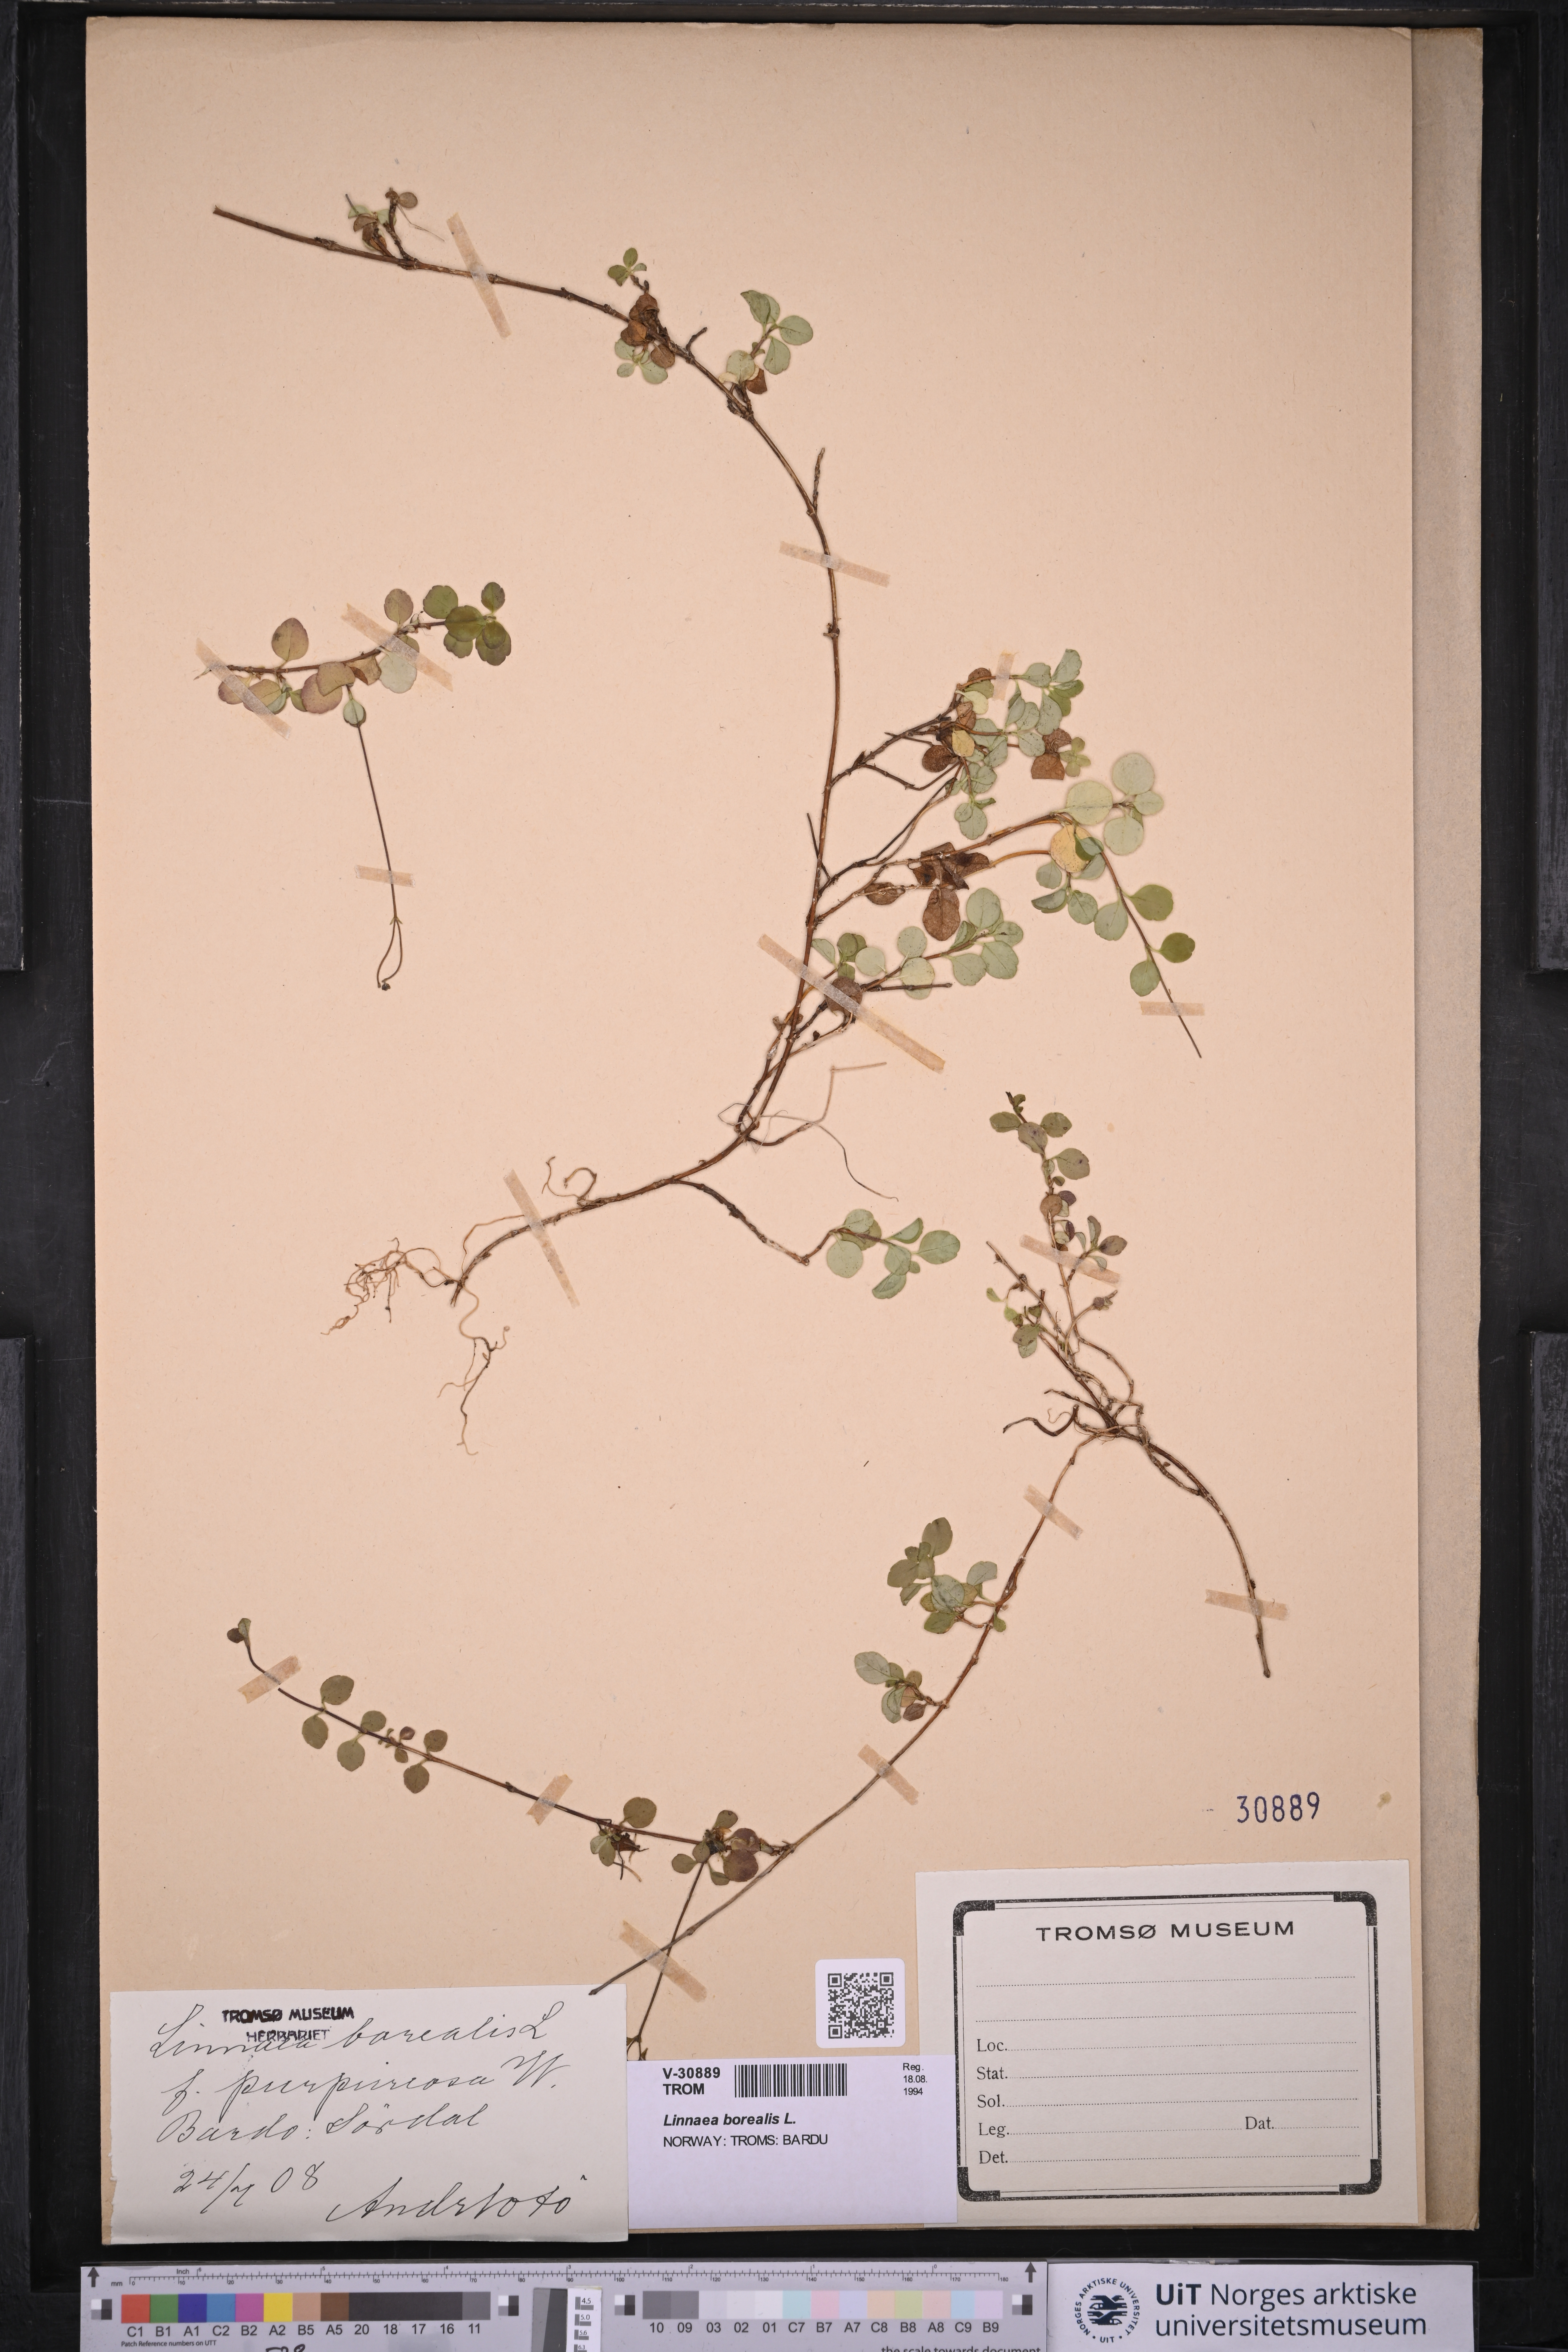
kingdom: Plantae
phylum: Tracheophyta
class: Magnoliopsida
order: Dipsacales
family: Caprifoliaceae
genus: Linnaea
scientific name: Linnaea borealis
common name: Twinflower
